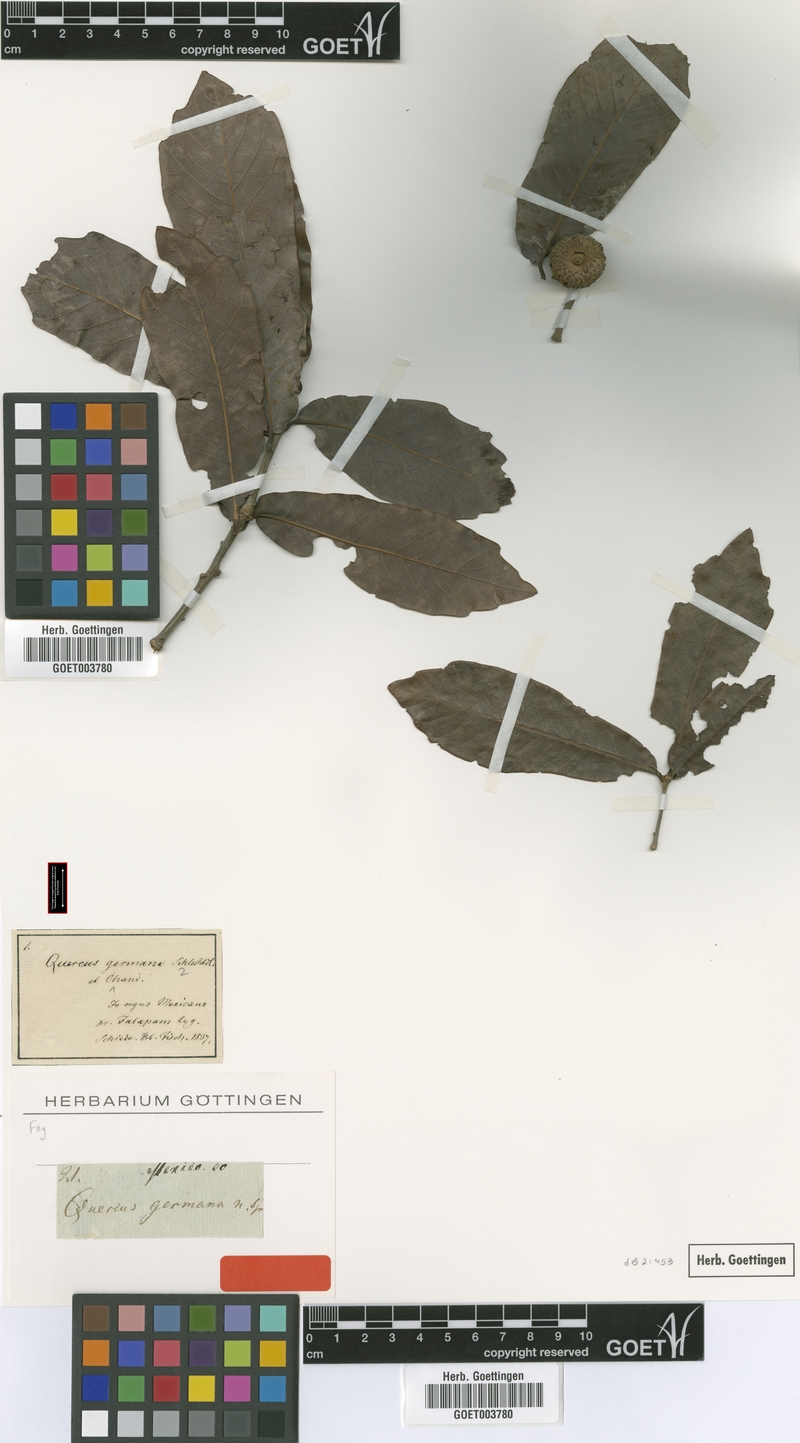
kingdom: Plantae
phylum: Tracheophyta
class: Magnoliopsida
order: Fagales
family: Fagaceae
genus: Quercus
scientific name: Quercus germana
